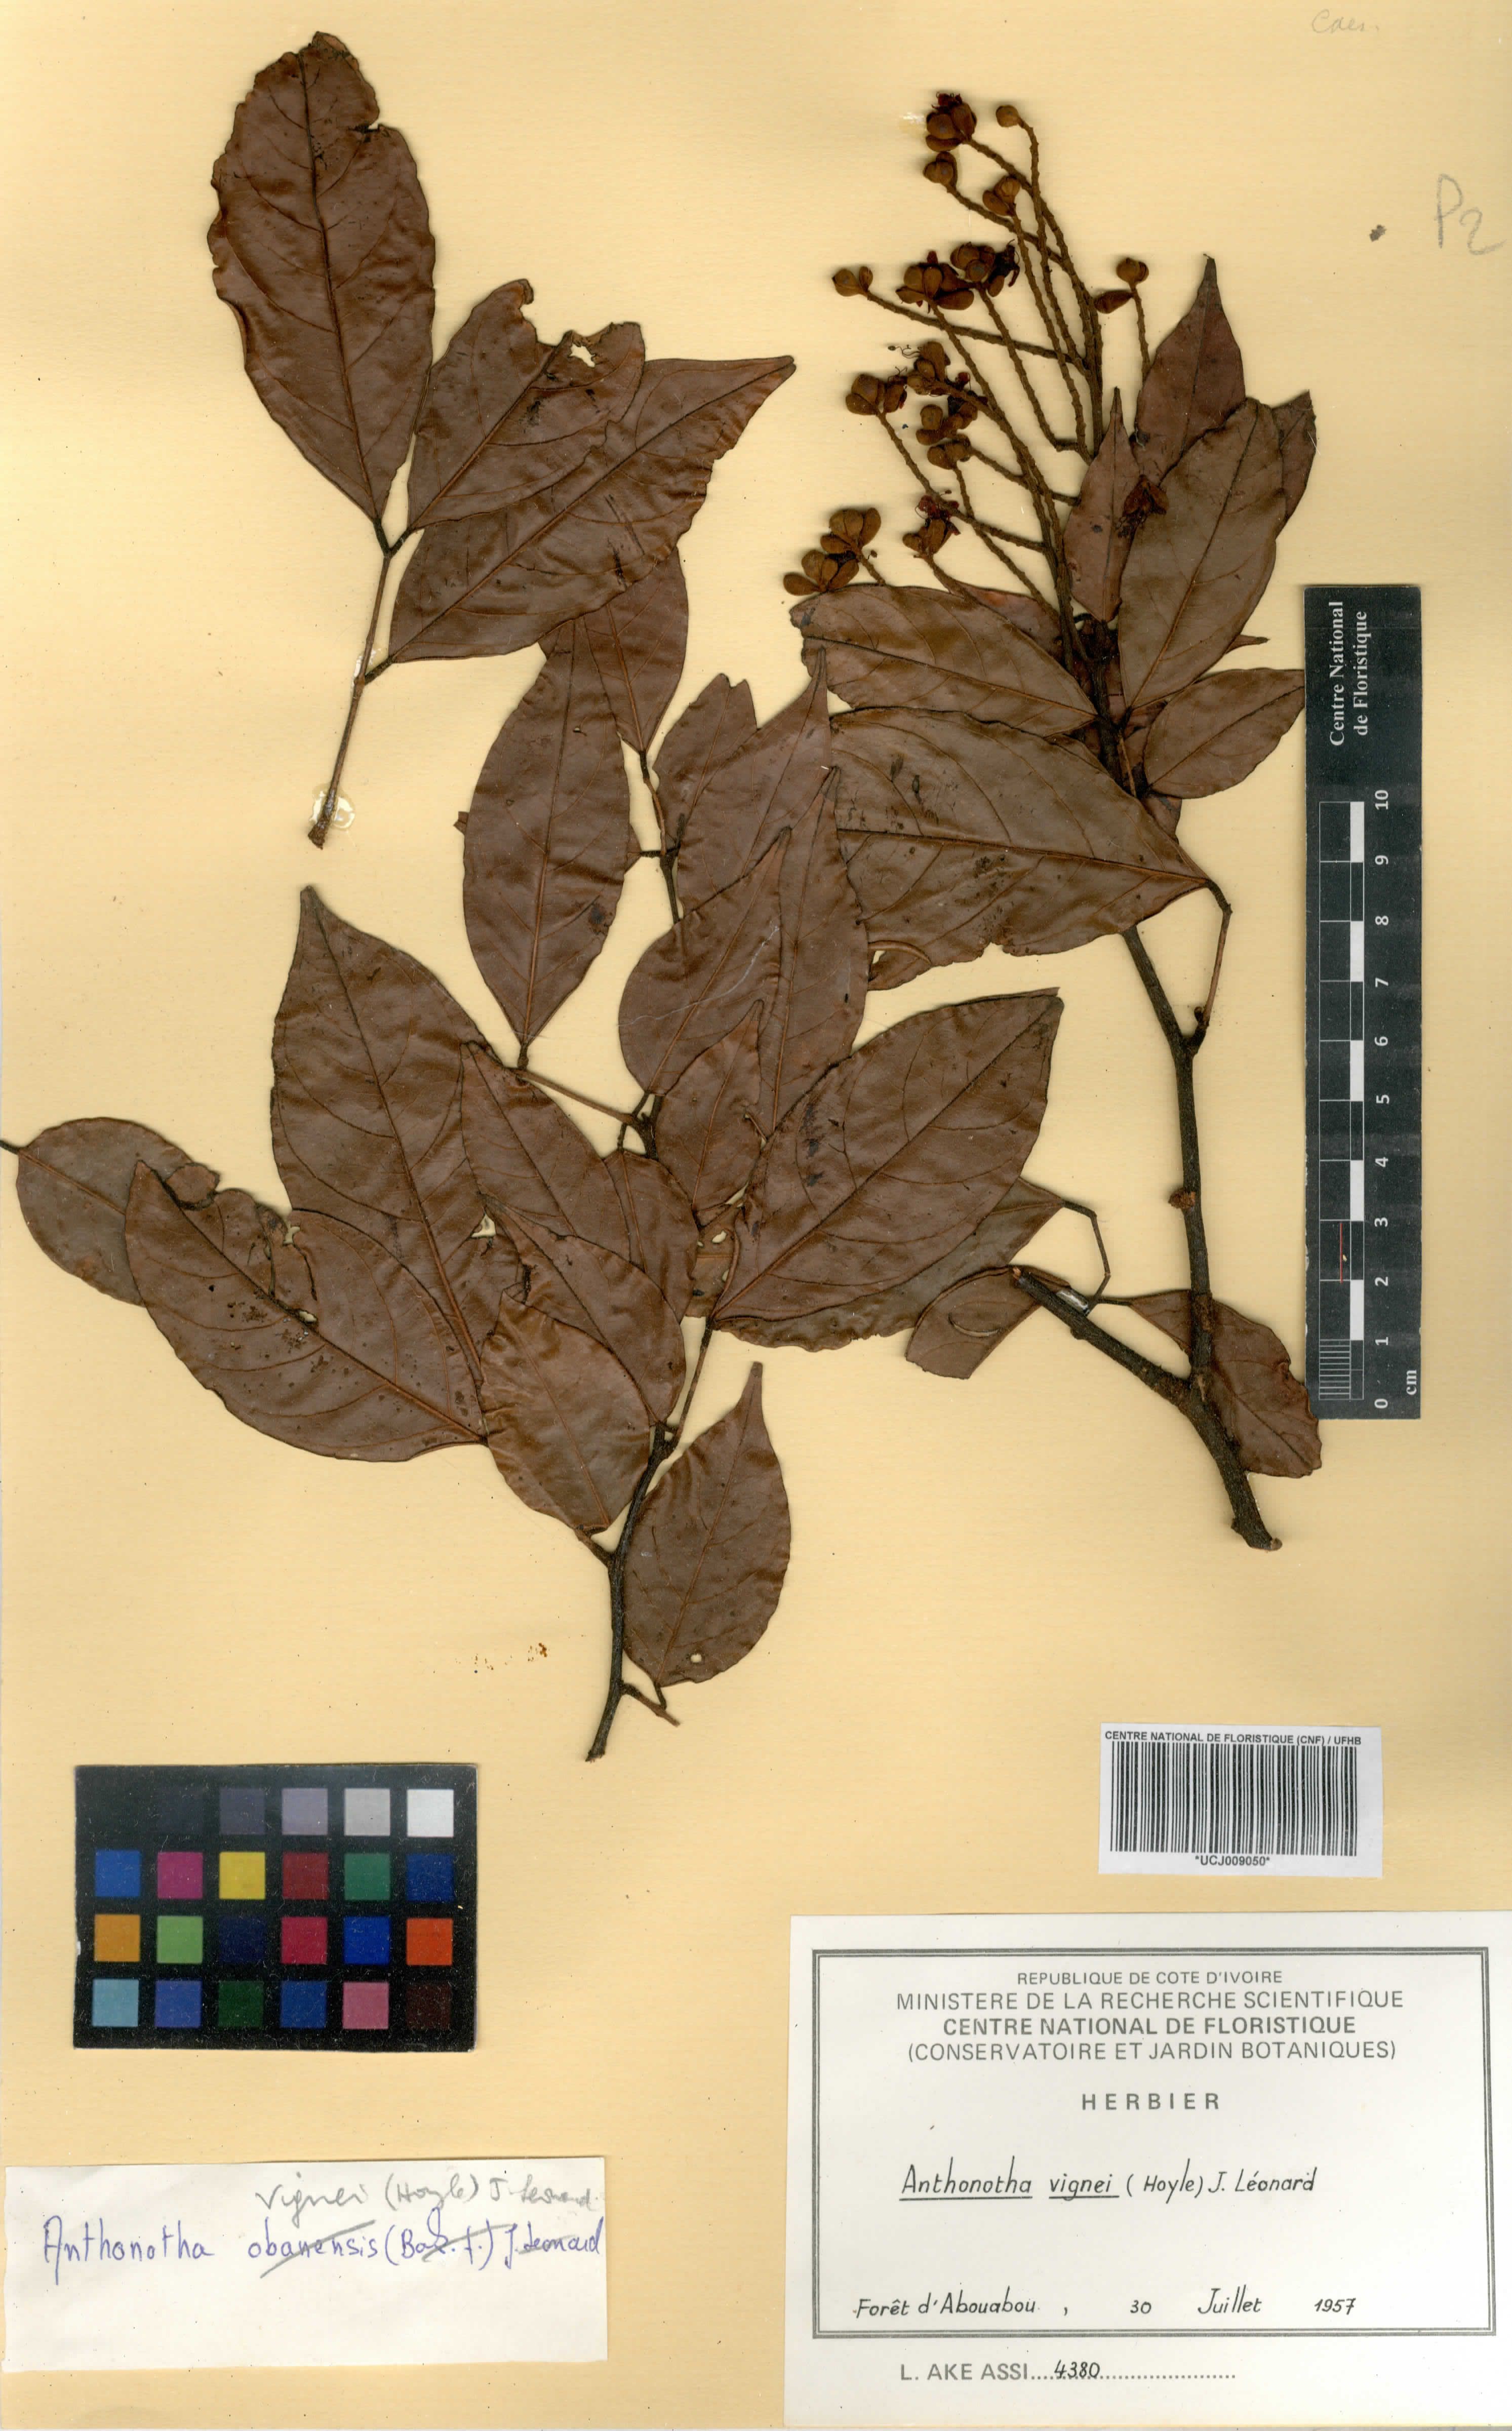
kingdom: Plantae
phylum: Tracheophyta
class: Magnoliopsida
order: Fabales
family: Fabaceae
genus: Englerodendron
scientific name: Englerodendron vignei
